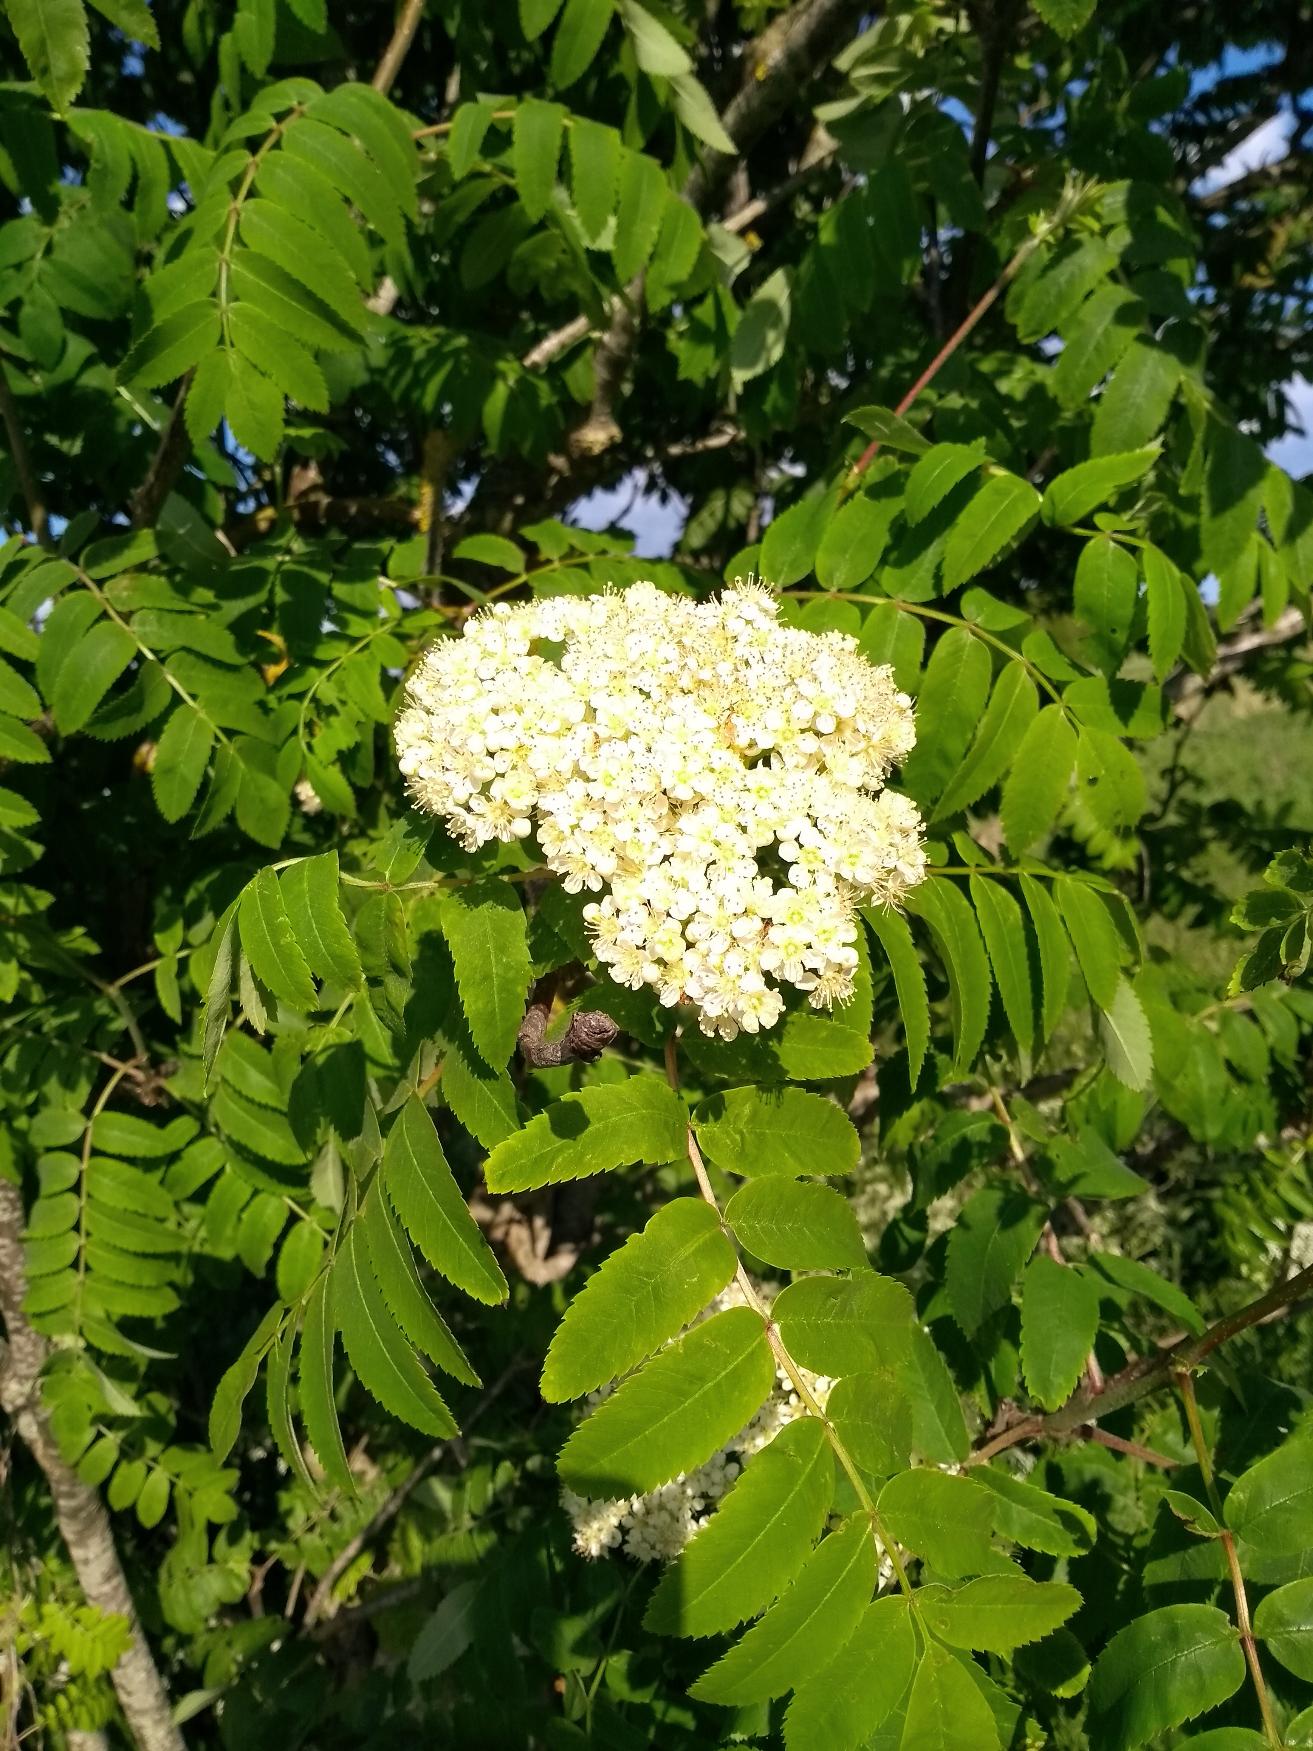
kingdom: Plantae
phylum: Tracheophyta
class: Magnoliopsida
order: Rosales
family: Rosaceae
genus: Sorbus
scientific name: Sorbus aucuparia
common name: Almindelig røn
